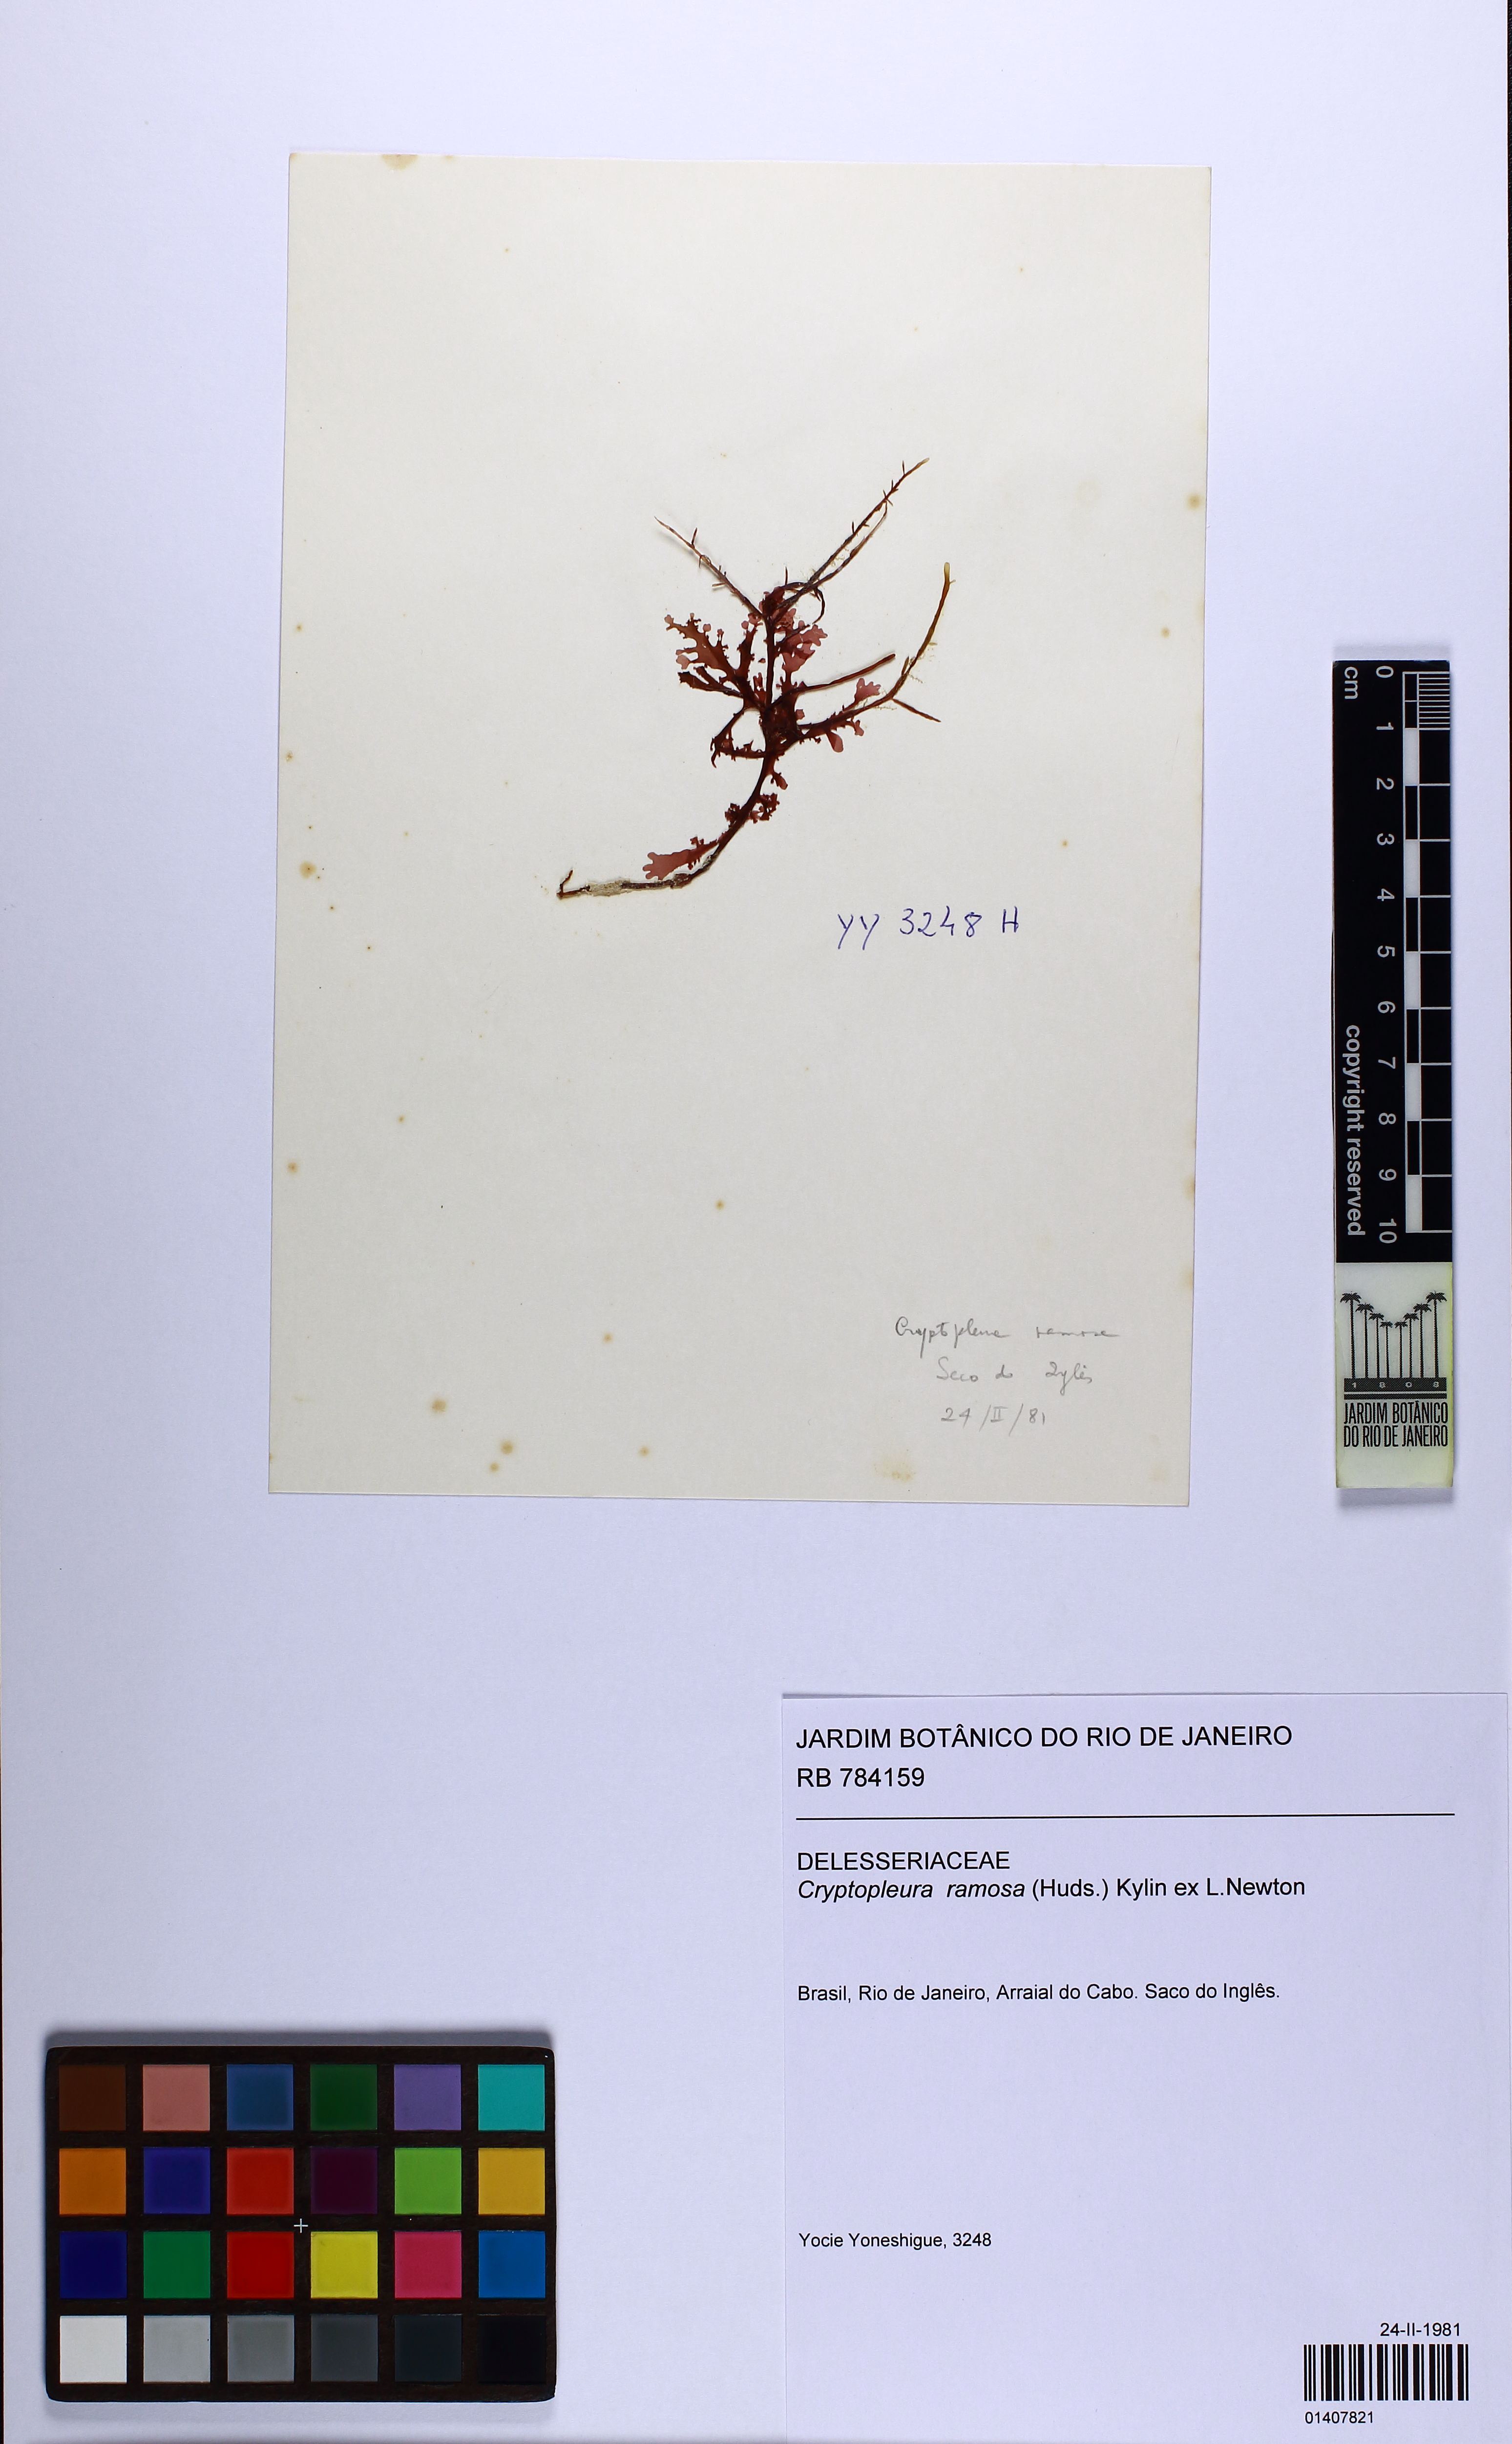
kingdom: Plantae
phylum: Rhodophyta
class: Florideophyceae
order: Ceramiales
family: Delesseriaceae
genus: Cryptopleura
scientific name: Cryptopleura ramosa
